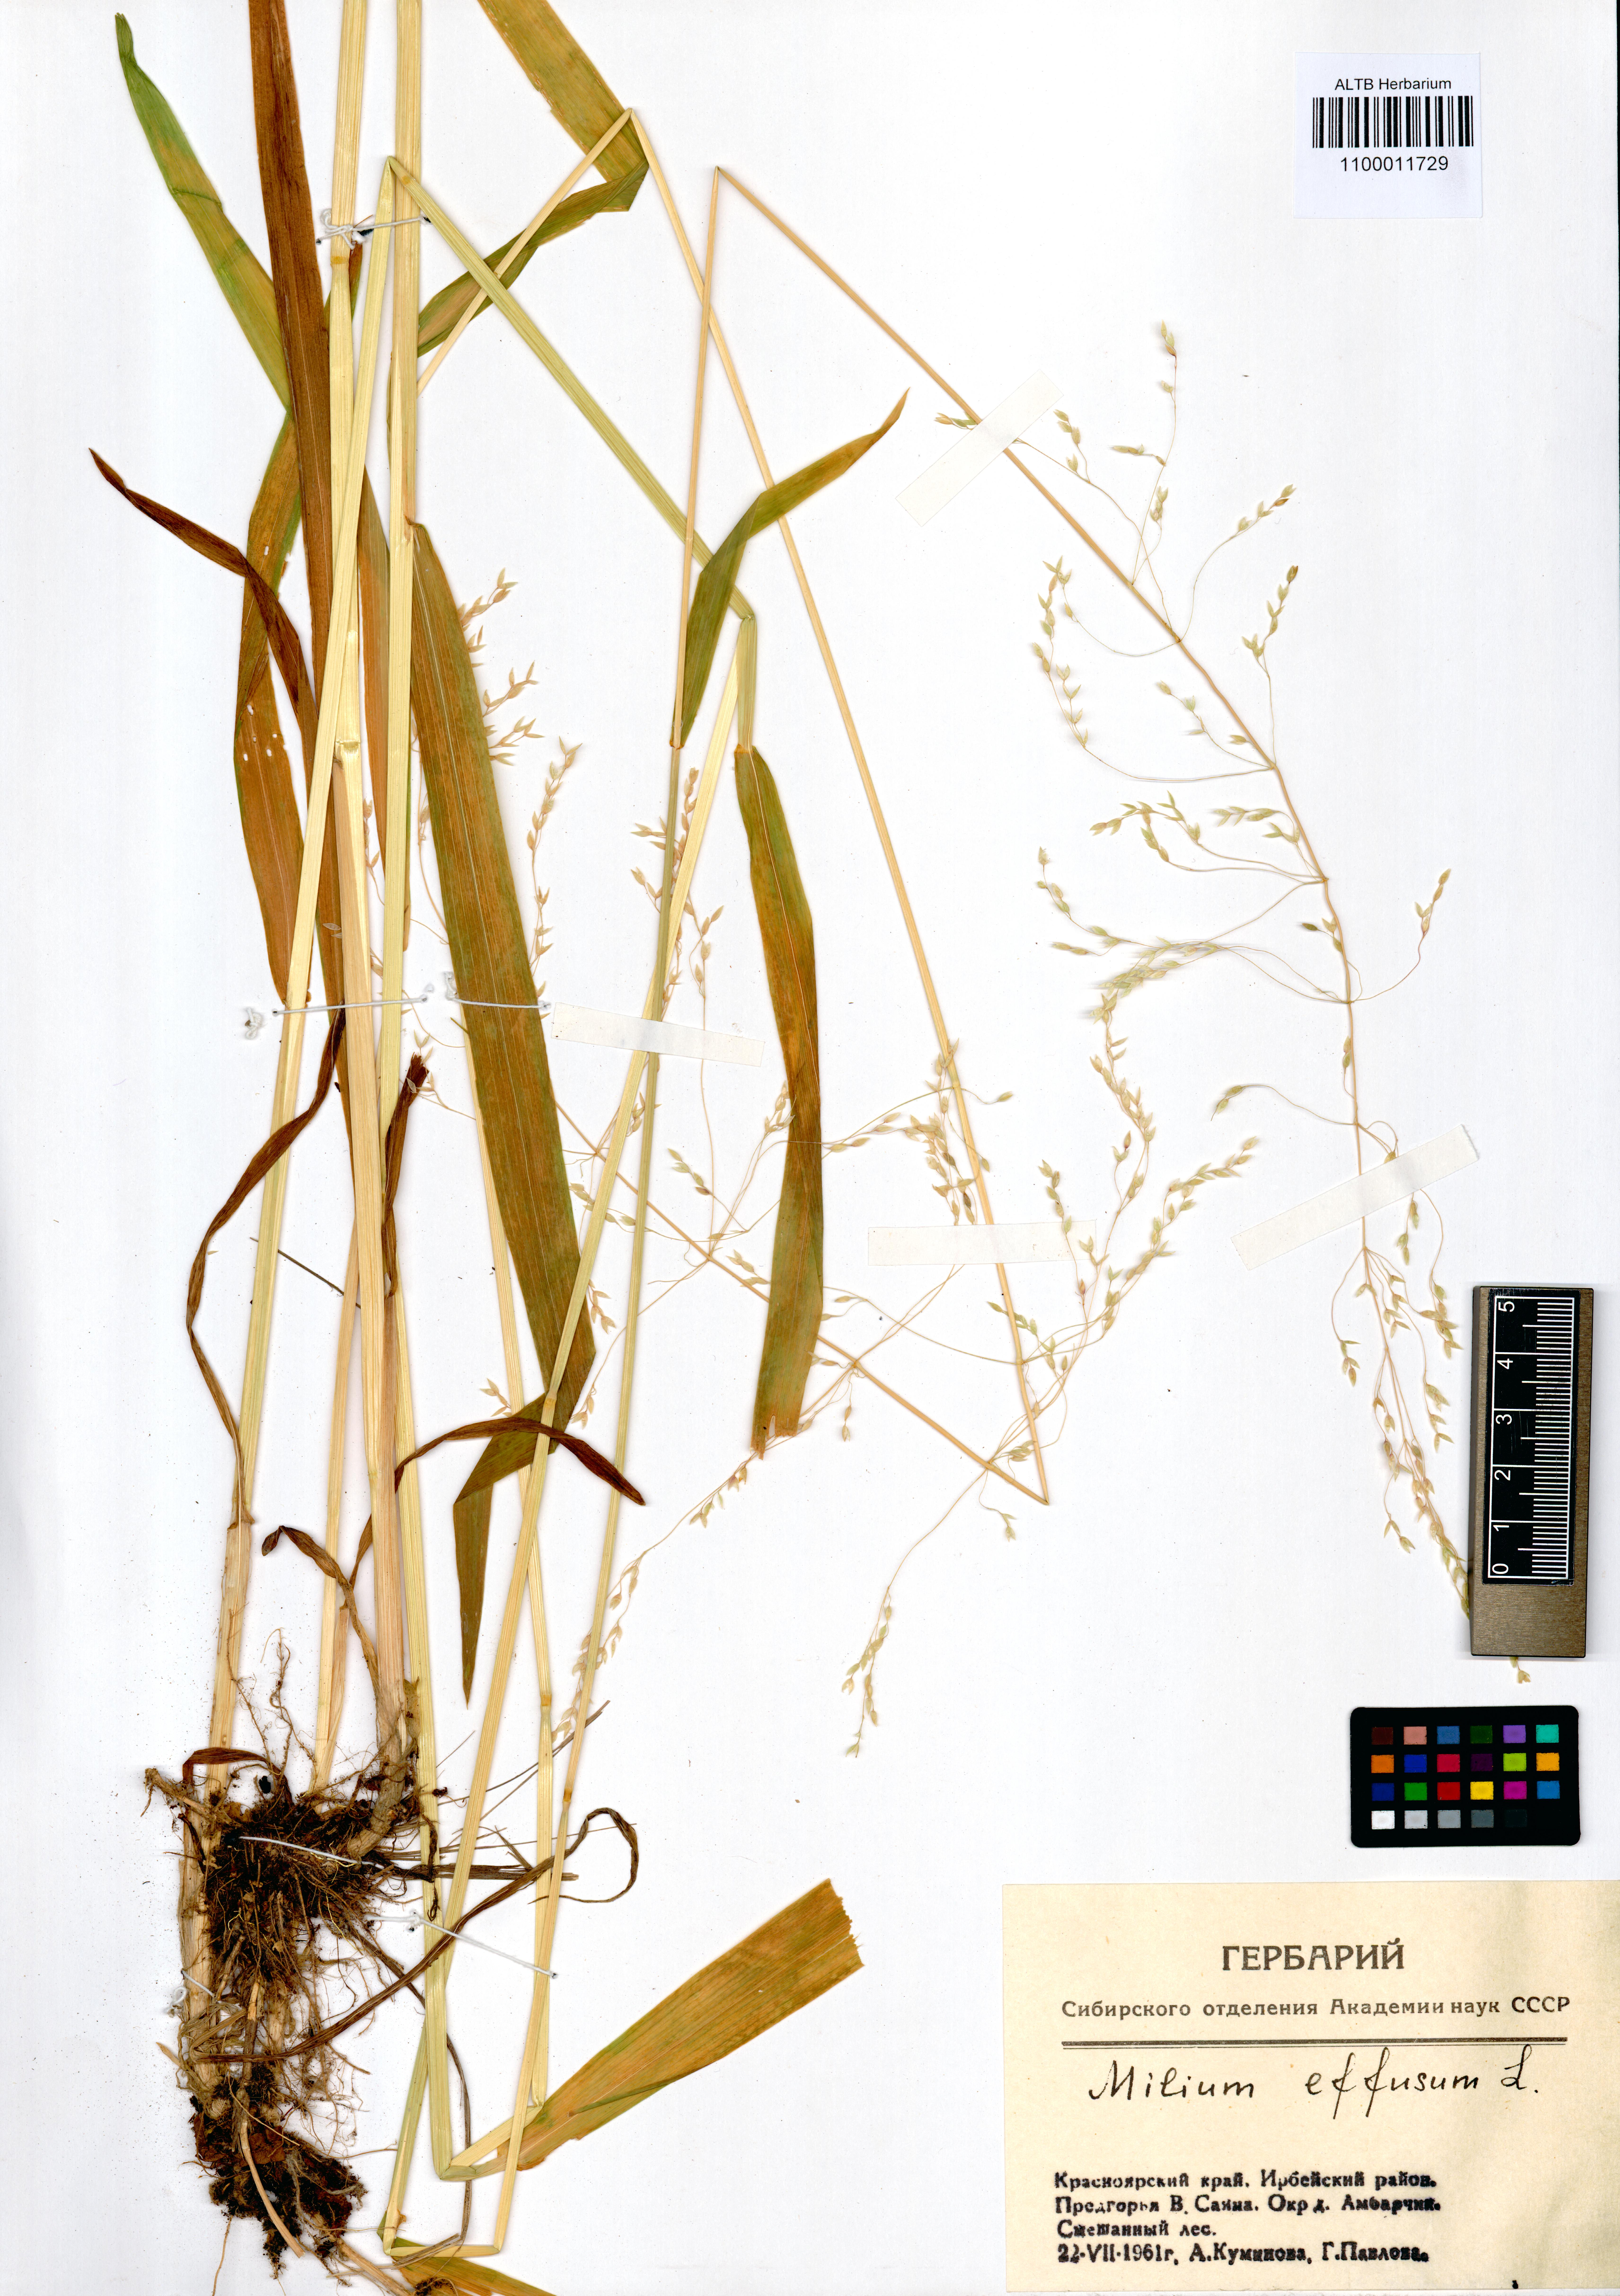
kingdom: Plantae
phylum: Tracheophyta
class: Liliopsida
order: Poales
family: Poaceae
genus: Milium
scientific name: Milium effusum
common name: Wood millet
